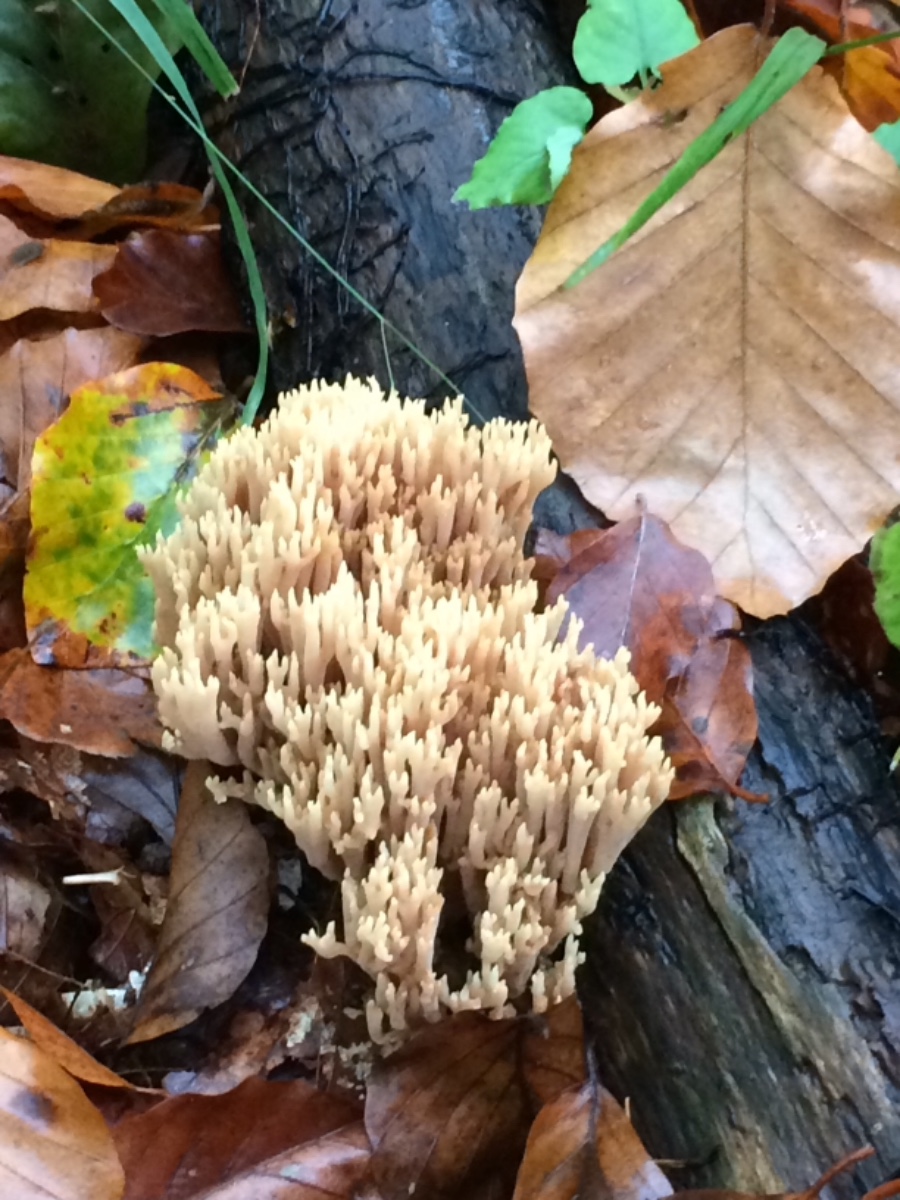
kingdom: Fungi
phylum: Basidiomycota
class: Agaricomycetes
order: Gomphales
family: Gomphaceae
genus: Ramaria
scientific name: Ramaria stricta
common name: rank koralsvamp
